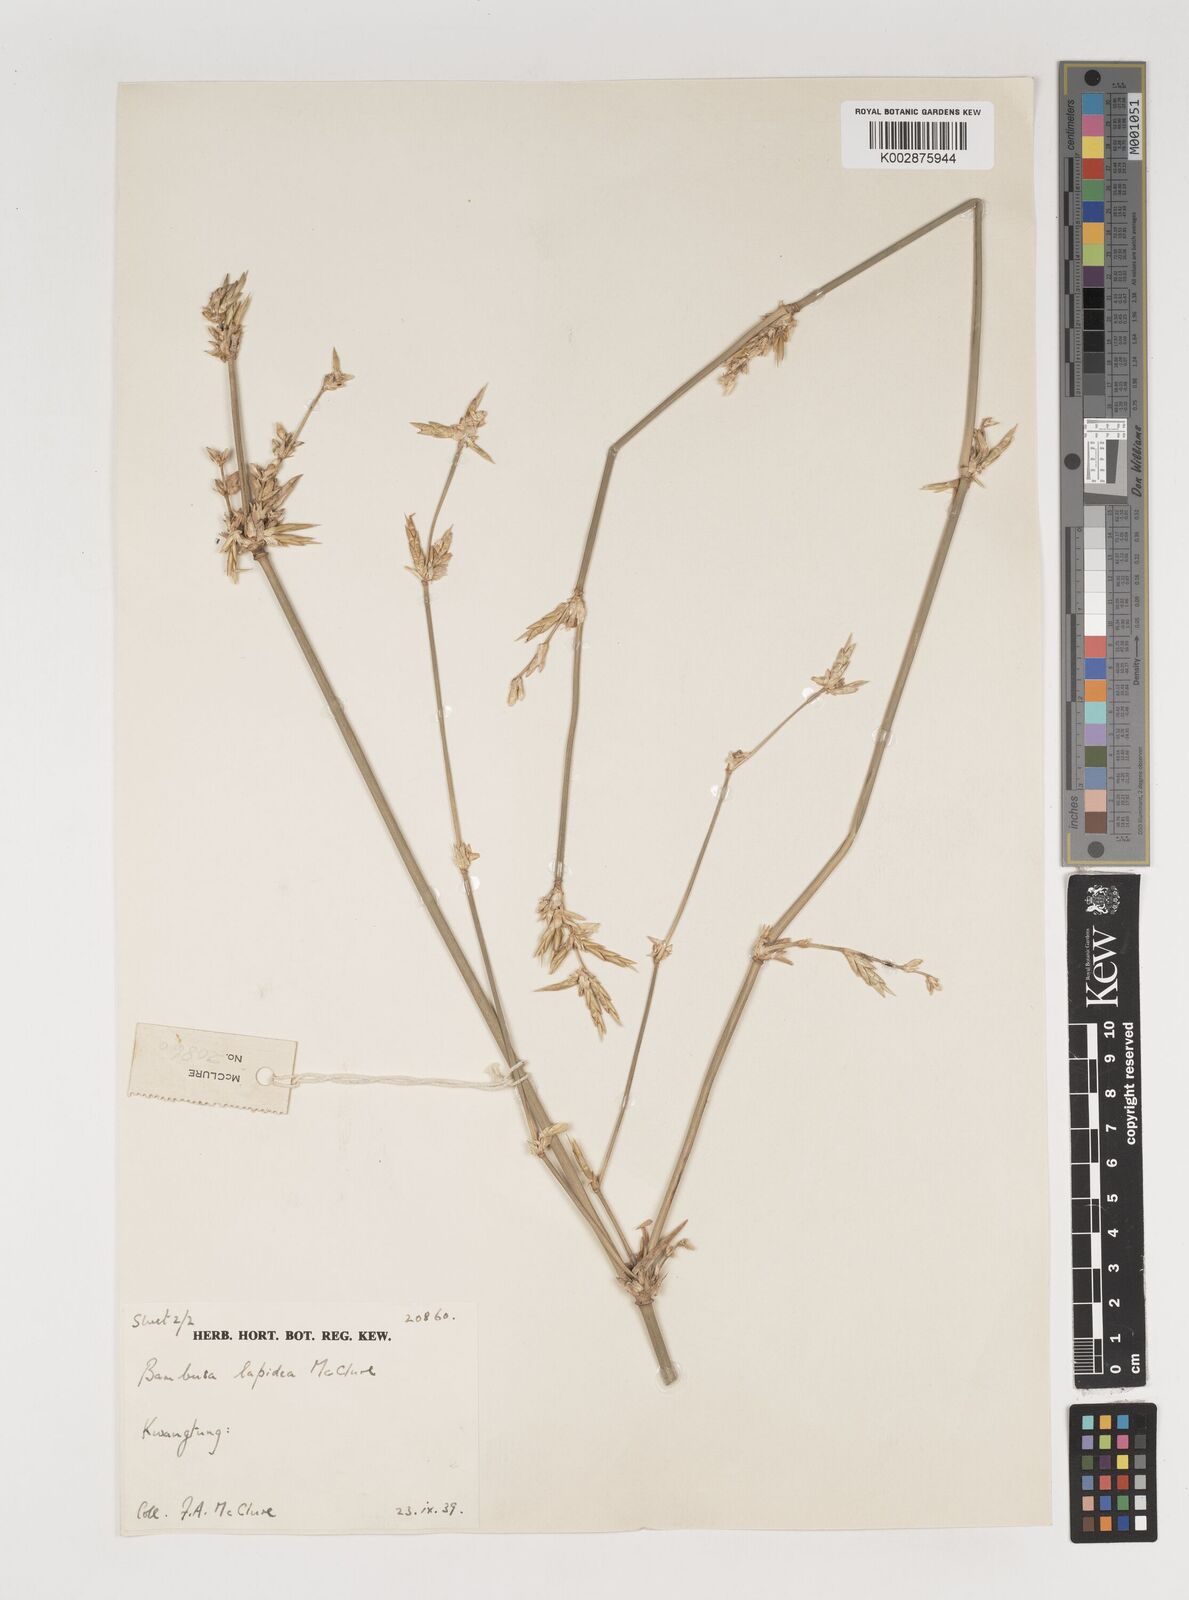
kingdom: Plantae
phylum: Tracheophyta
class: Liliopsida
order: Poales
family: Poaceae
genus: Bambusa
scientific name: Bambusa lapidea
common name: Horsehoof bamboo
